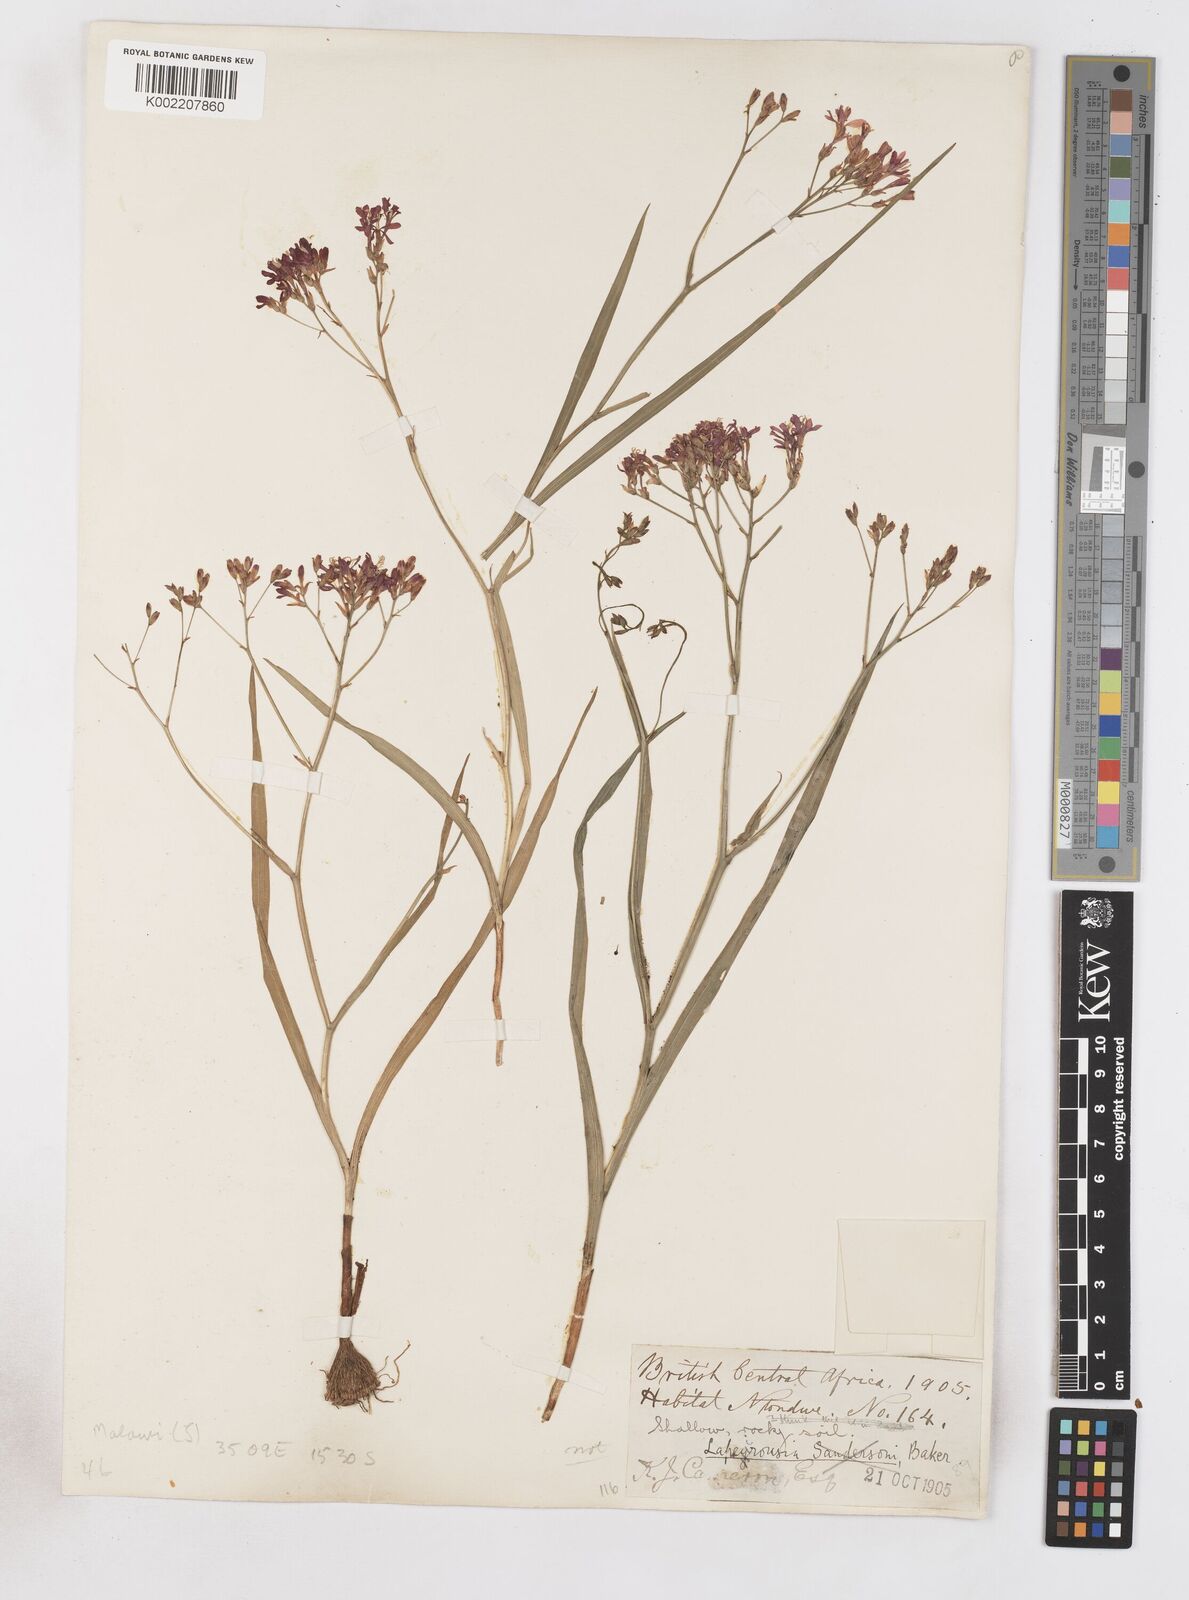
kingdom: Plantae
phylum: Tracheophyta
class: Liliopsida
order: Asparagales
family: Iridaceae
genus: Afrosolen
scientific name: Afrosolen erythranthus
